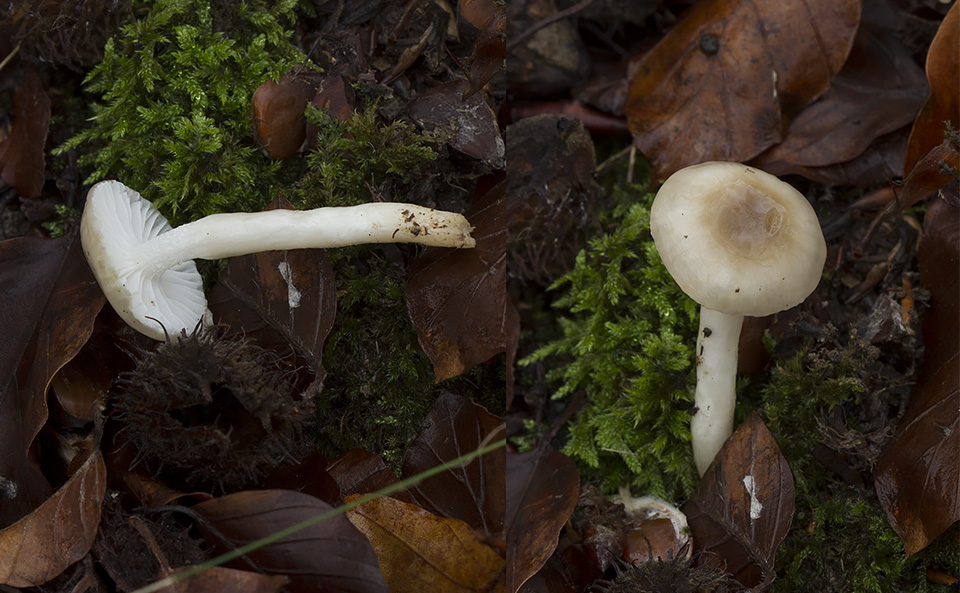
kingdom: Fungi
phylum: Basidiomycota
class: Agaricomycetes
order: Agaricales
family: Hygrophoraceae
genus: Hygrophorus
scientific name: Hygrophorus mesotephrus
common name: askegrå sneglehat
